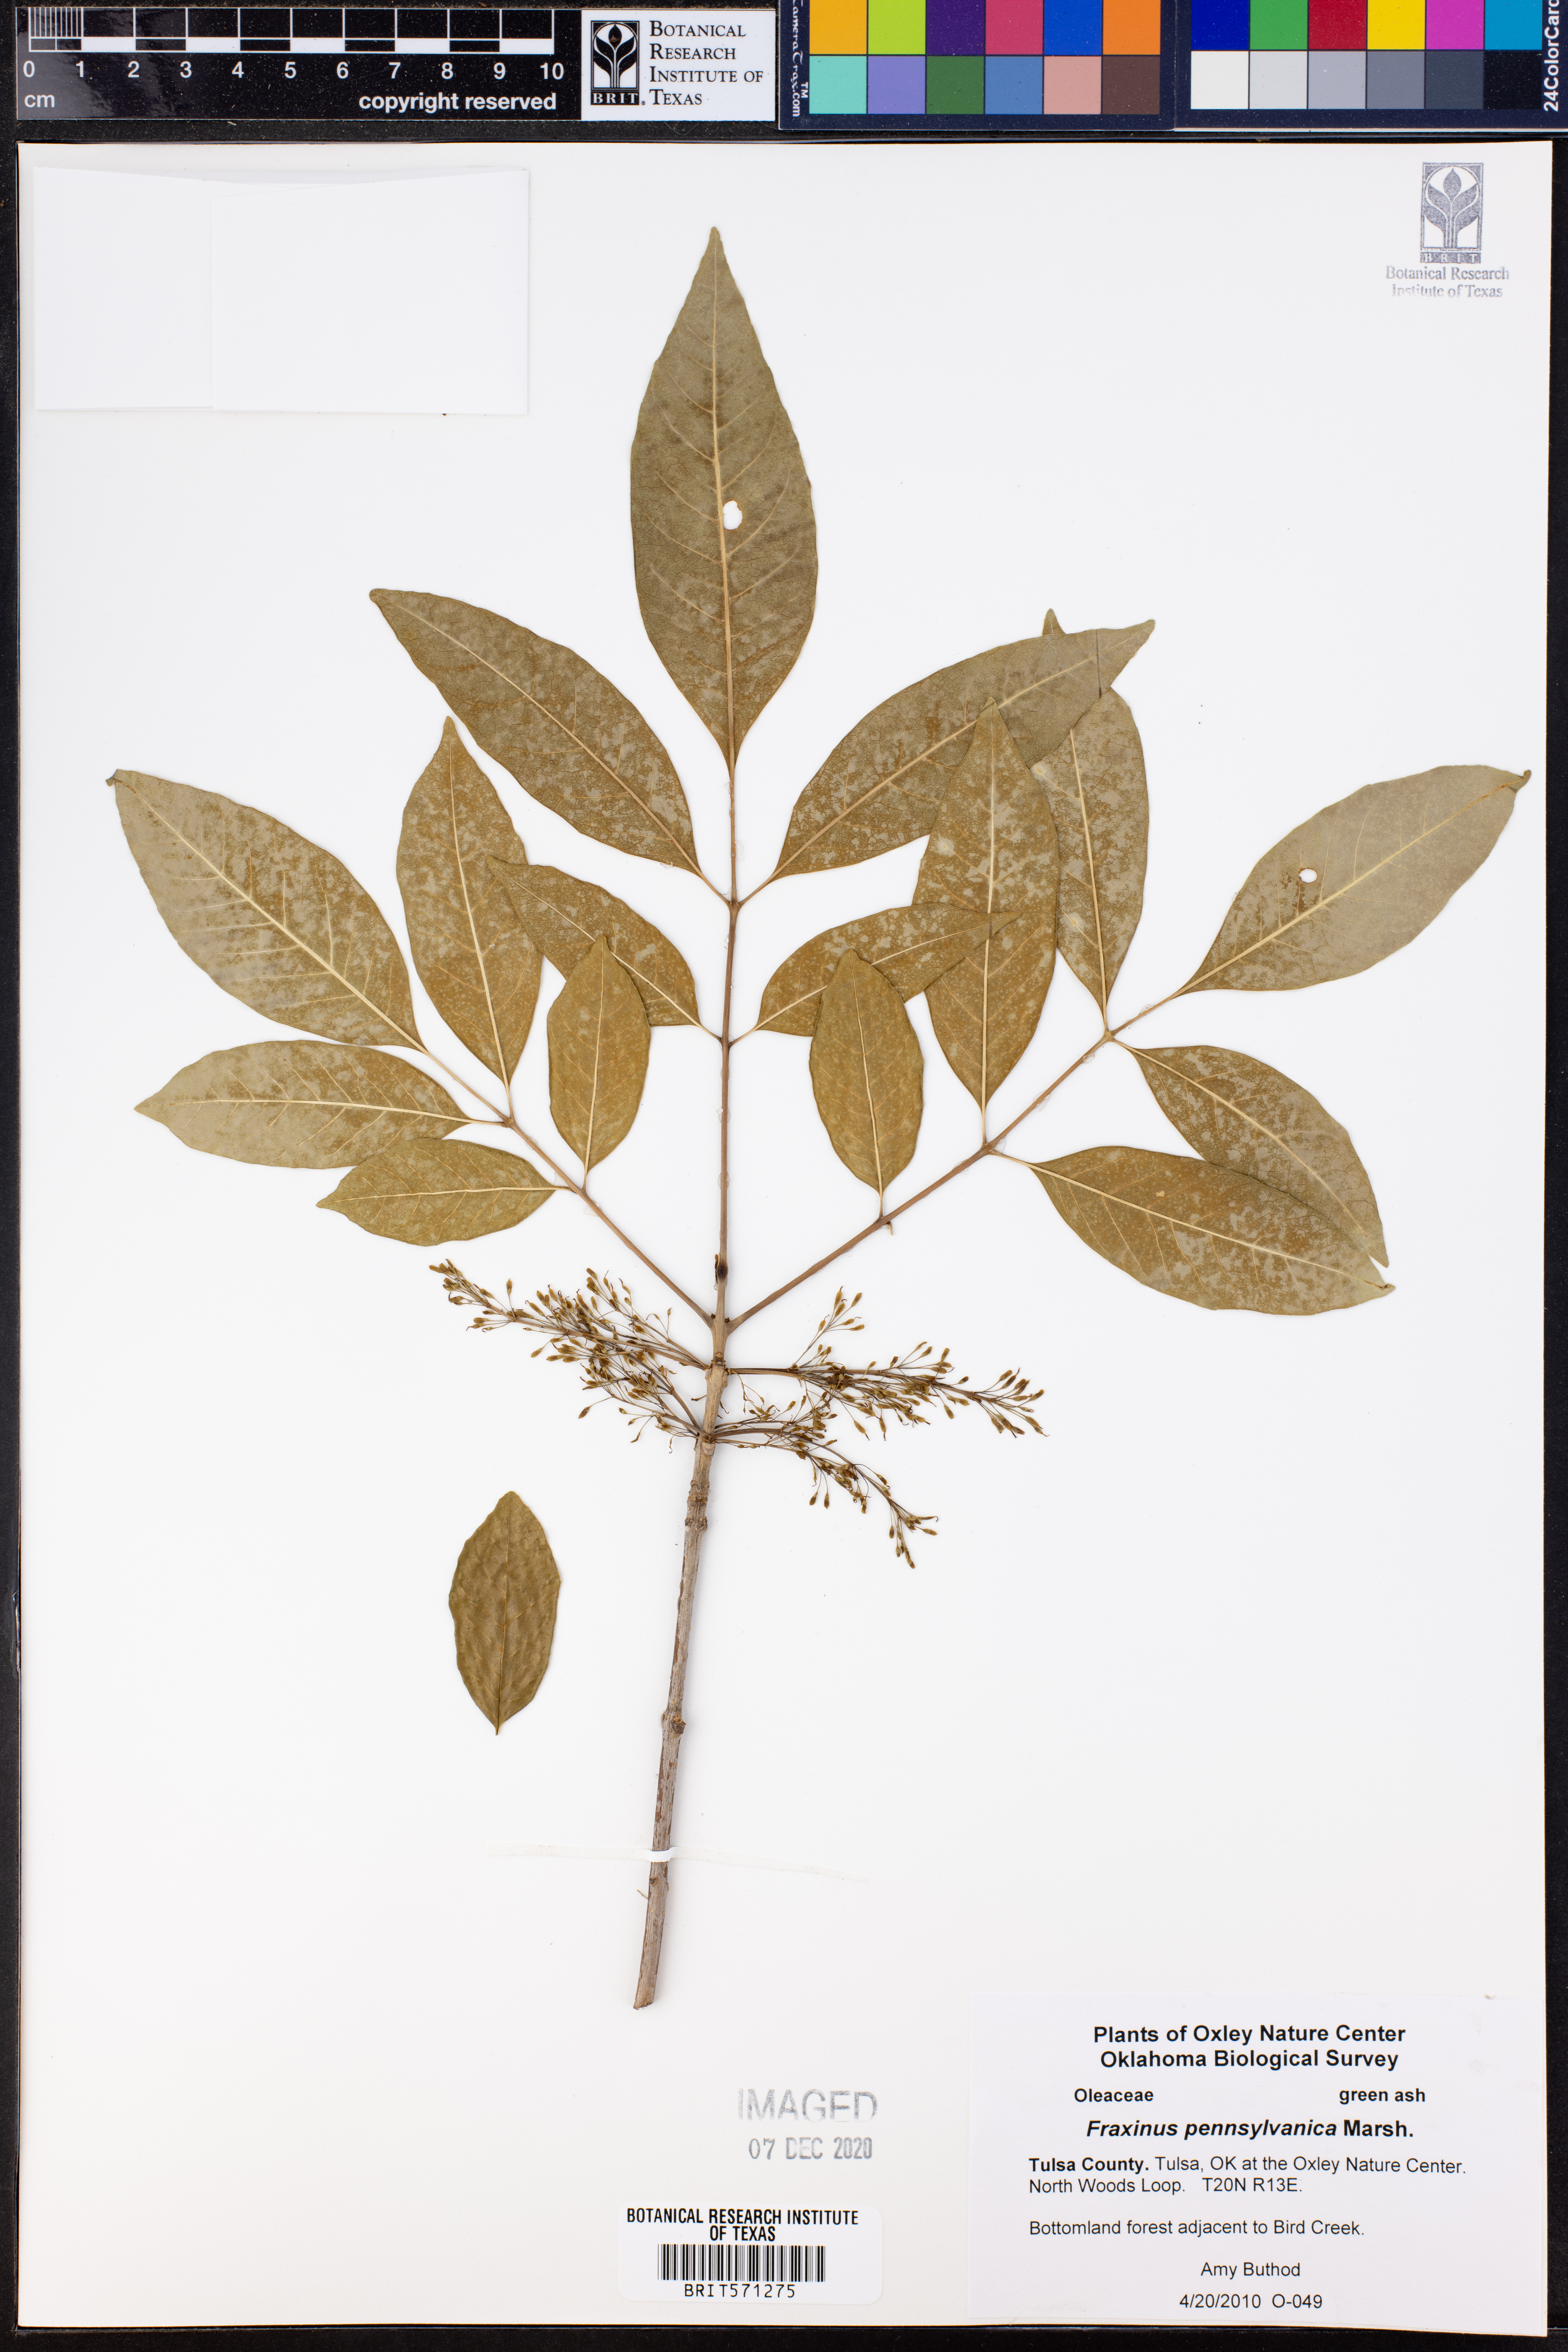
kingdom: Plantae
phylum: Tracheophyta
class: Magnoliopsida
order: Lamiales
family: Oleaceae
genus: Fraxinus
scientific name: Fraxinus pennsylvanica
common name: Green ash
